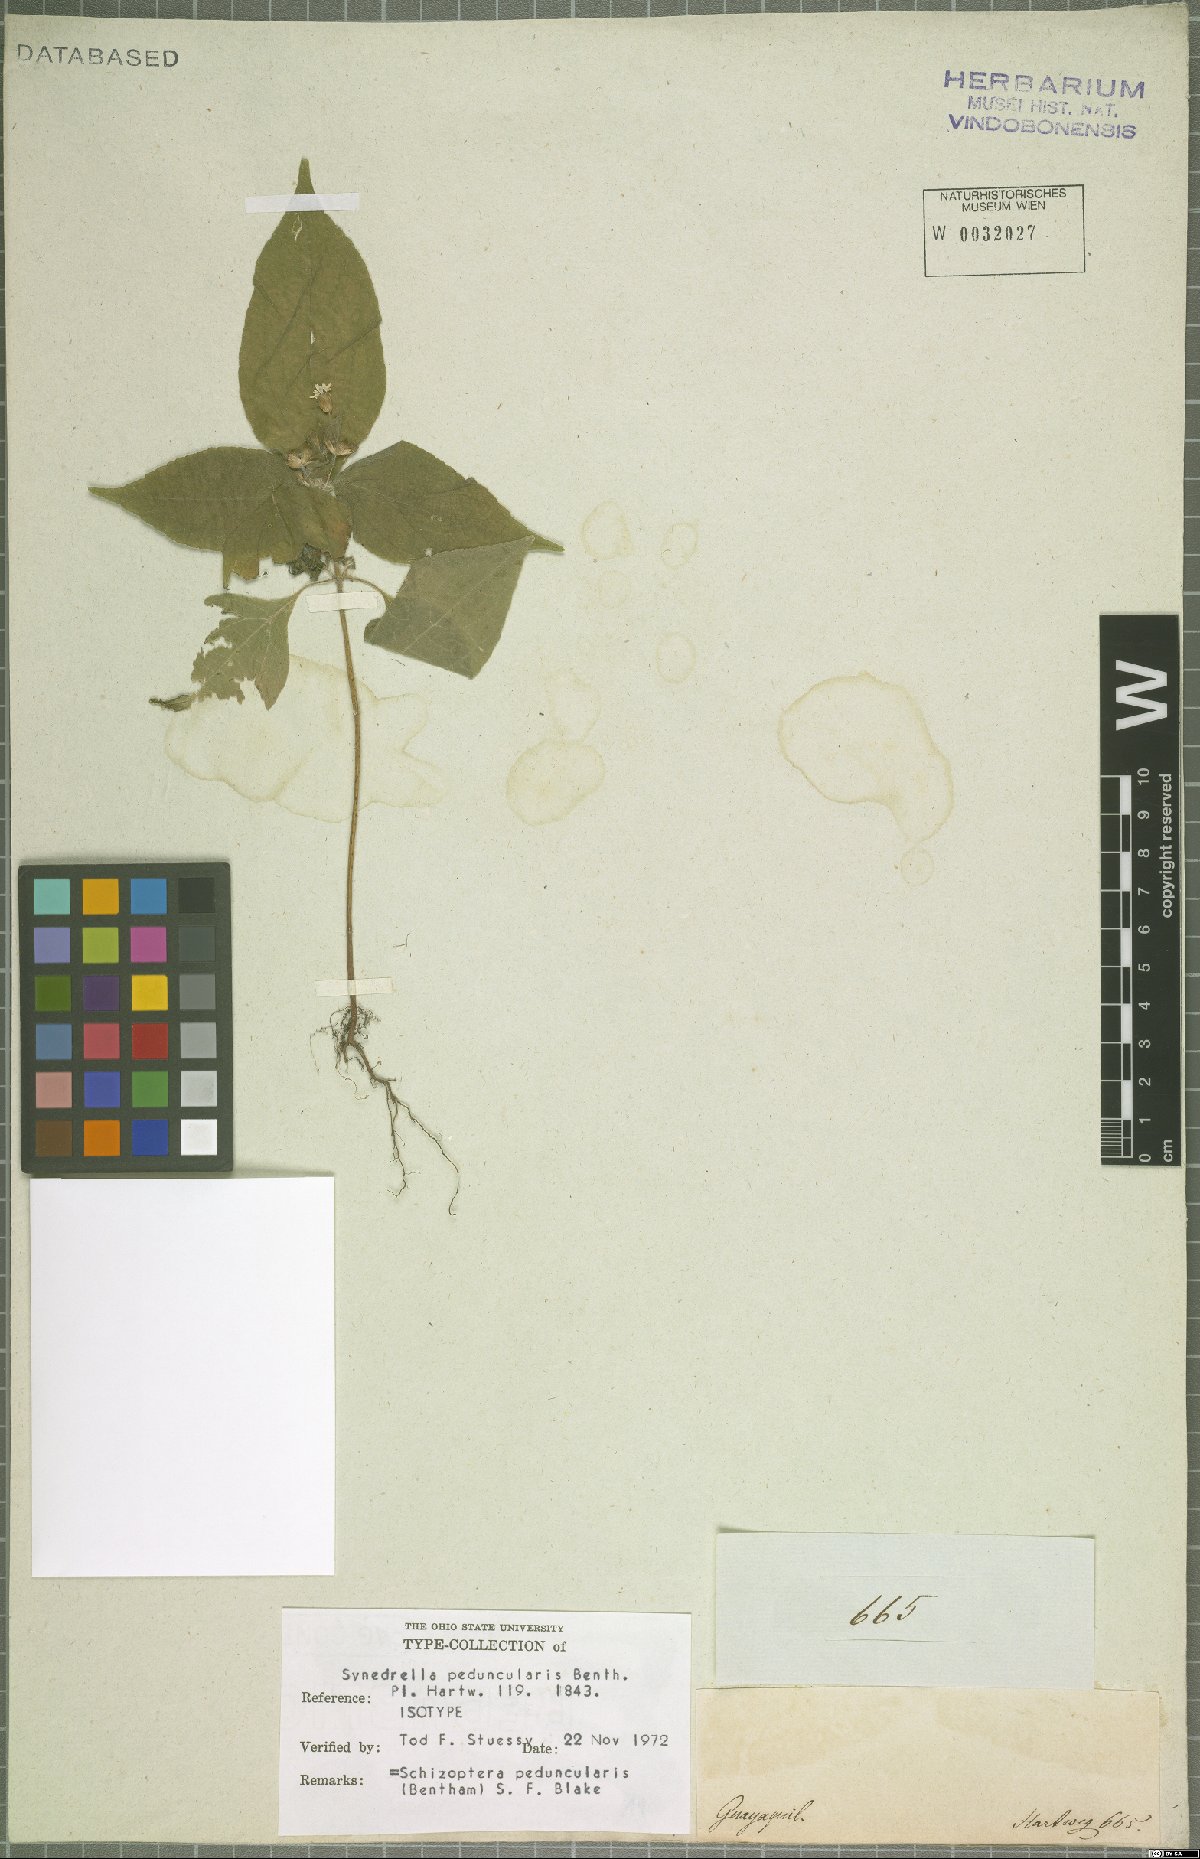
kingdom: Plantae
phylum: Tracheophyta
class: Magnoliopsida
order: Asterales
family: Asteraceae
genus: Schizoptera
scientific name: Schizoptera peduncularis
